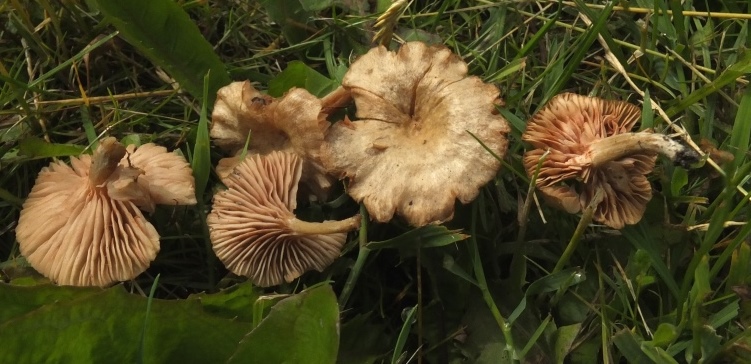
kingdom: Fungi
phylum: Basidiomycota
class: Agaricomycetes
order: Agaricales
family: Entolomataceae
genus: Entoloma
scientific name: Entoloma neglectum
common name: bleg rødblad
